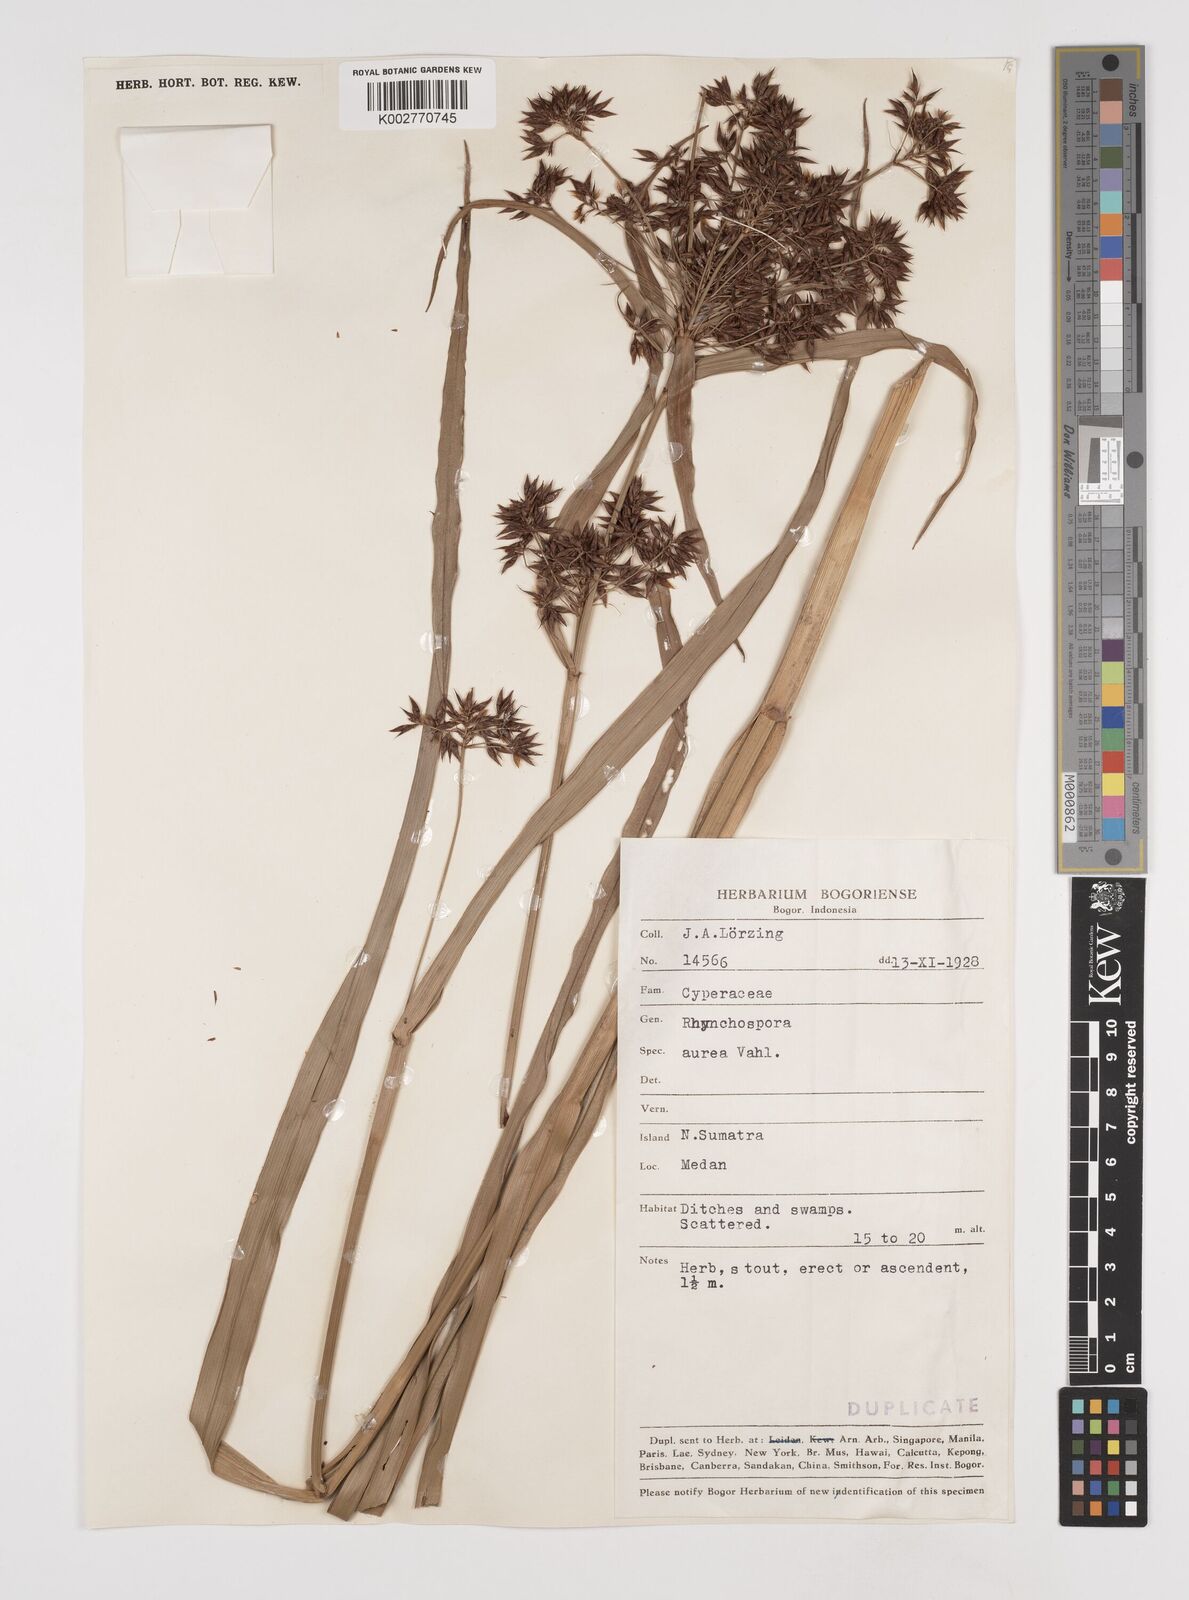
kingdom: Plantae
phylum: Tracheophyta
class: Liliopsida
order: Poales
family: Cyperaceae
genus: Rhynchospora
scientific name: Rhynchospora corymbosa
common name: Golden beak sedge
